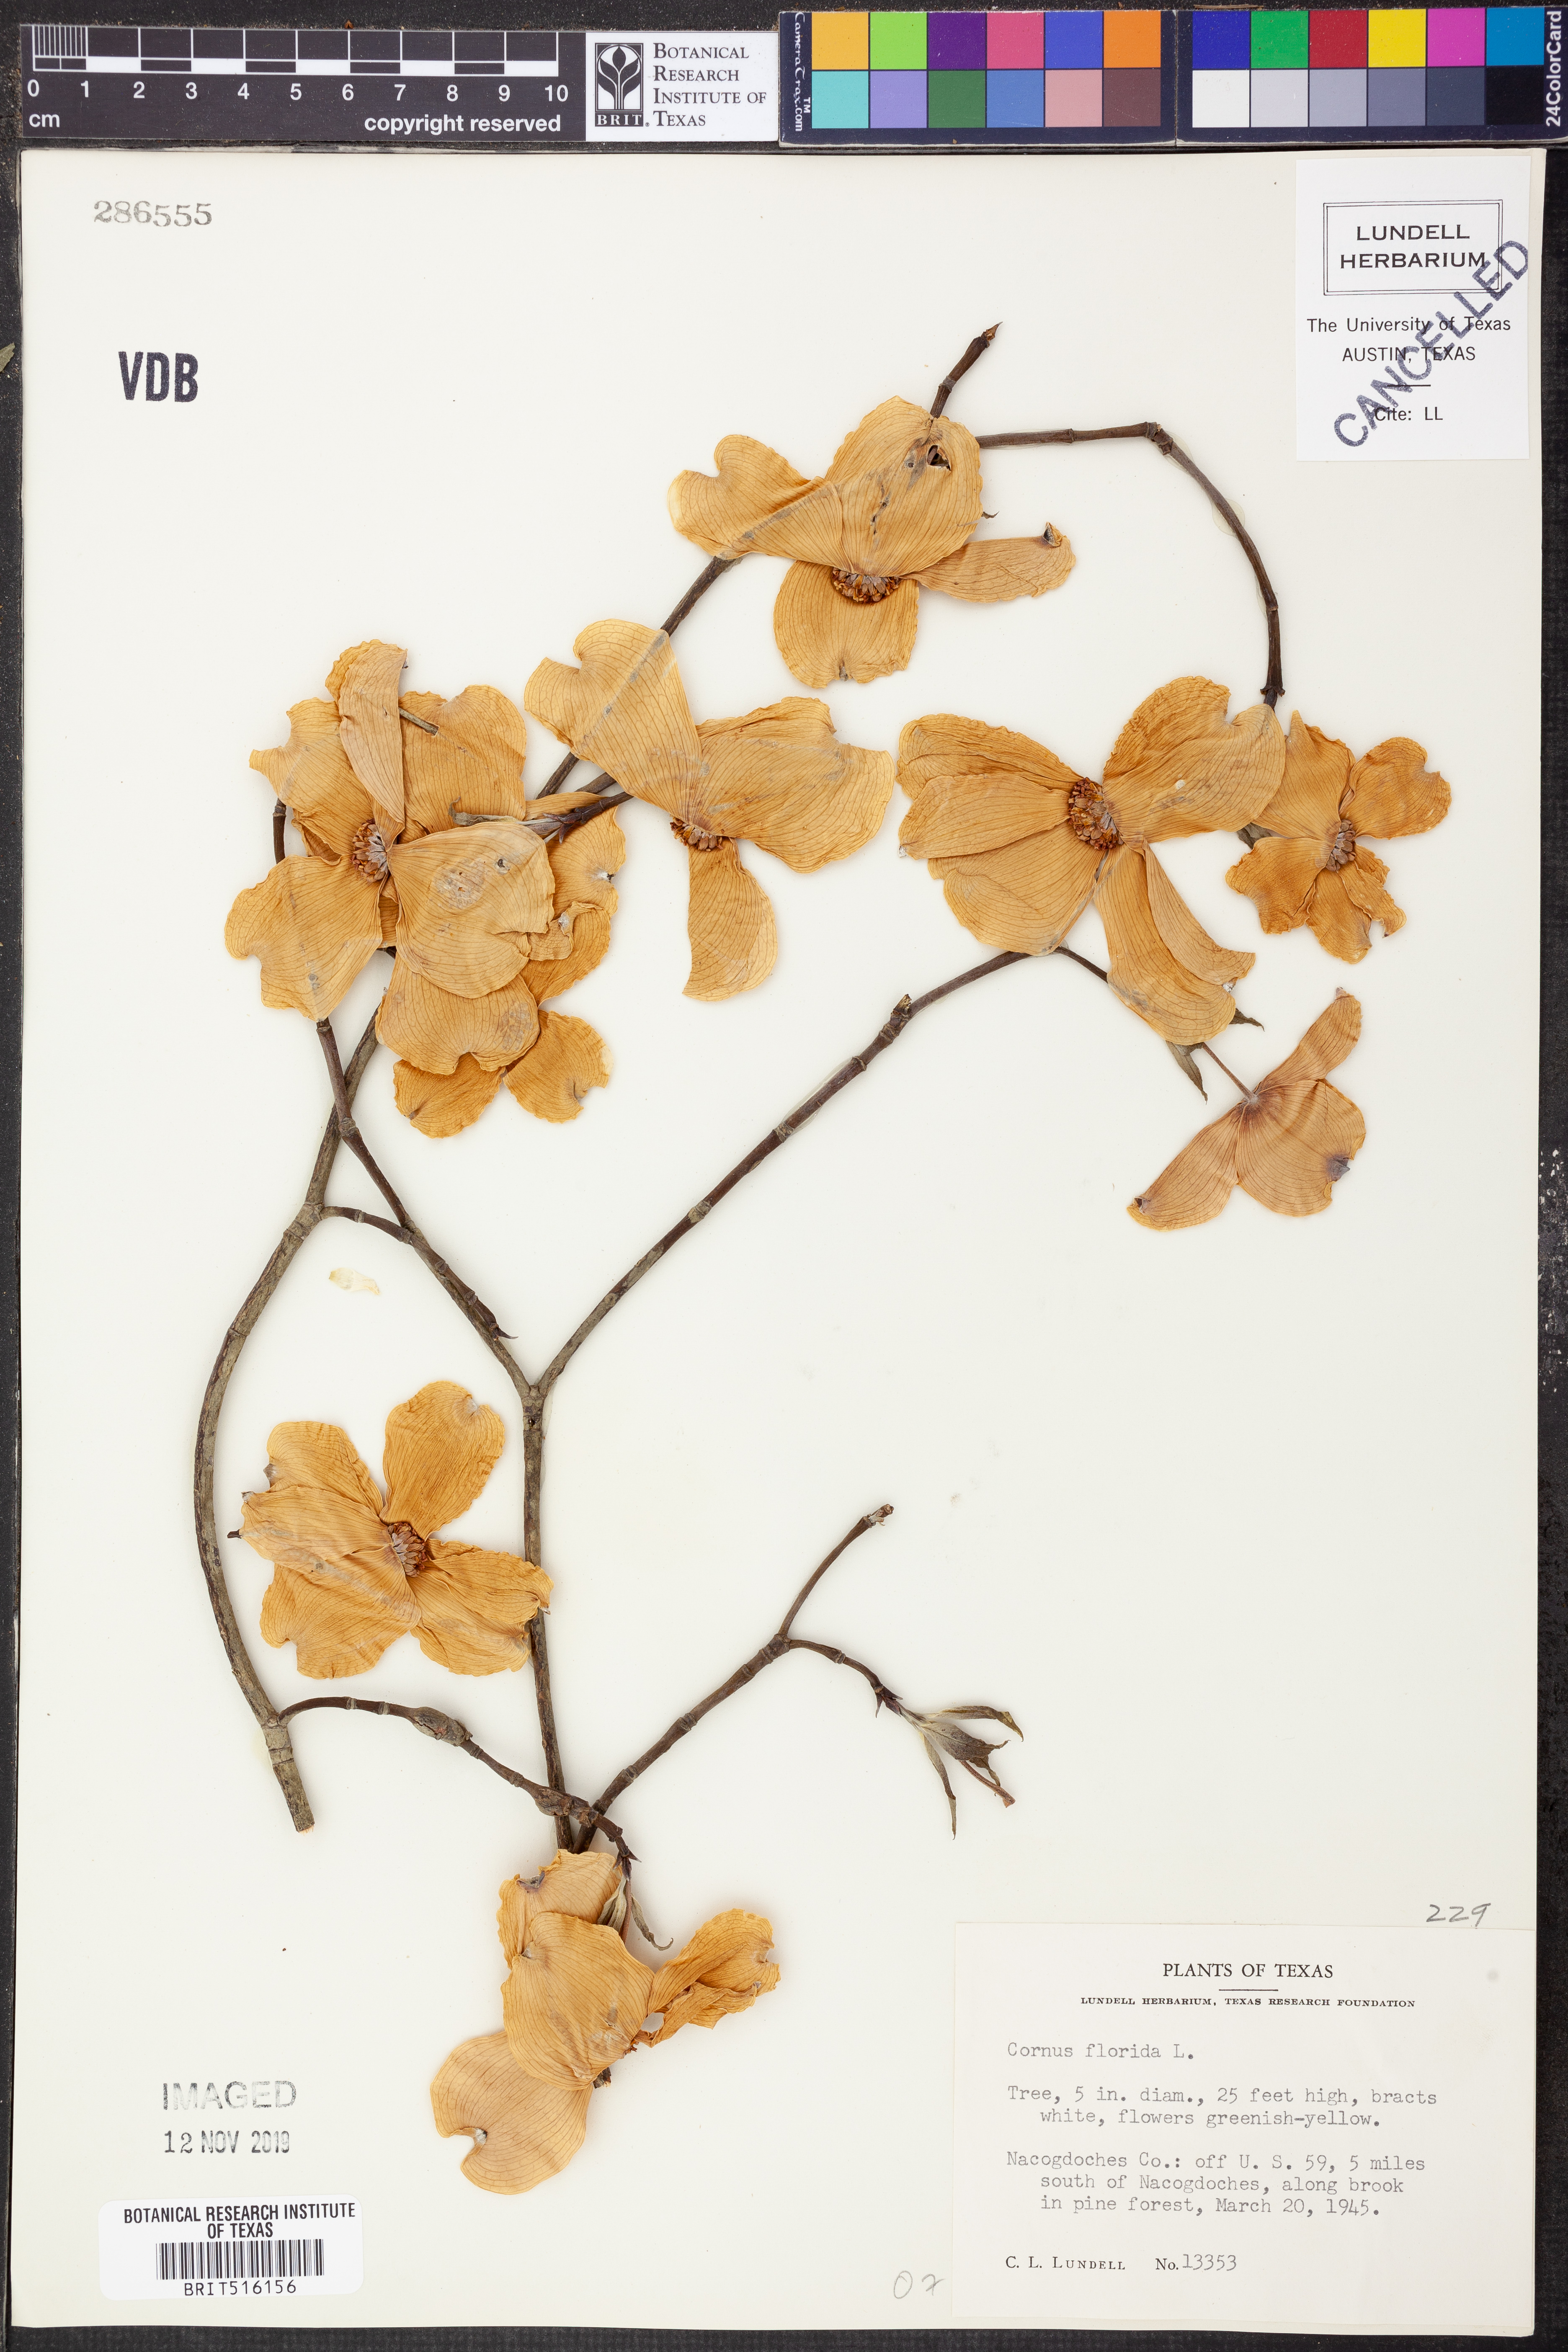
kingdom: Plantae
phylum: Tracheophyta
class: Magnoliopsida
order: Cornales
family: Cornaceae
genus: Cornus
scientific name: Cornus florida
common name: Flowering dogwood
